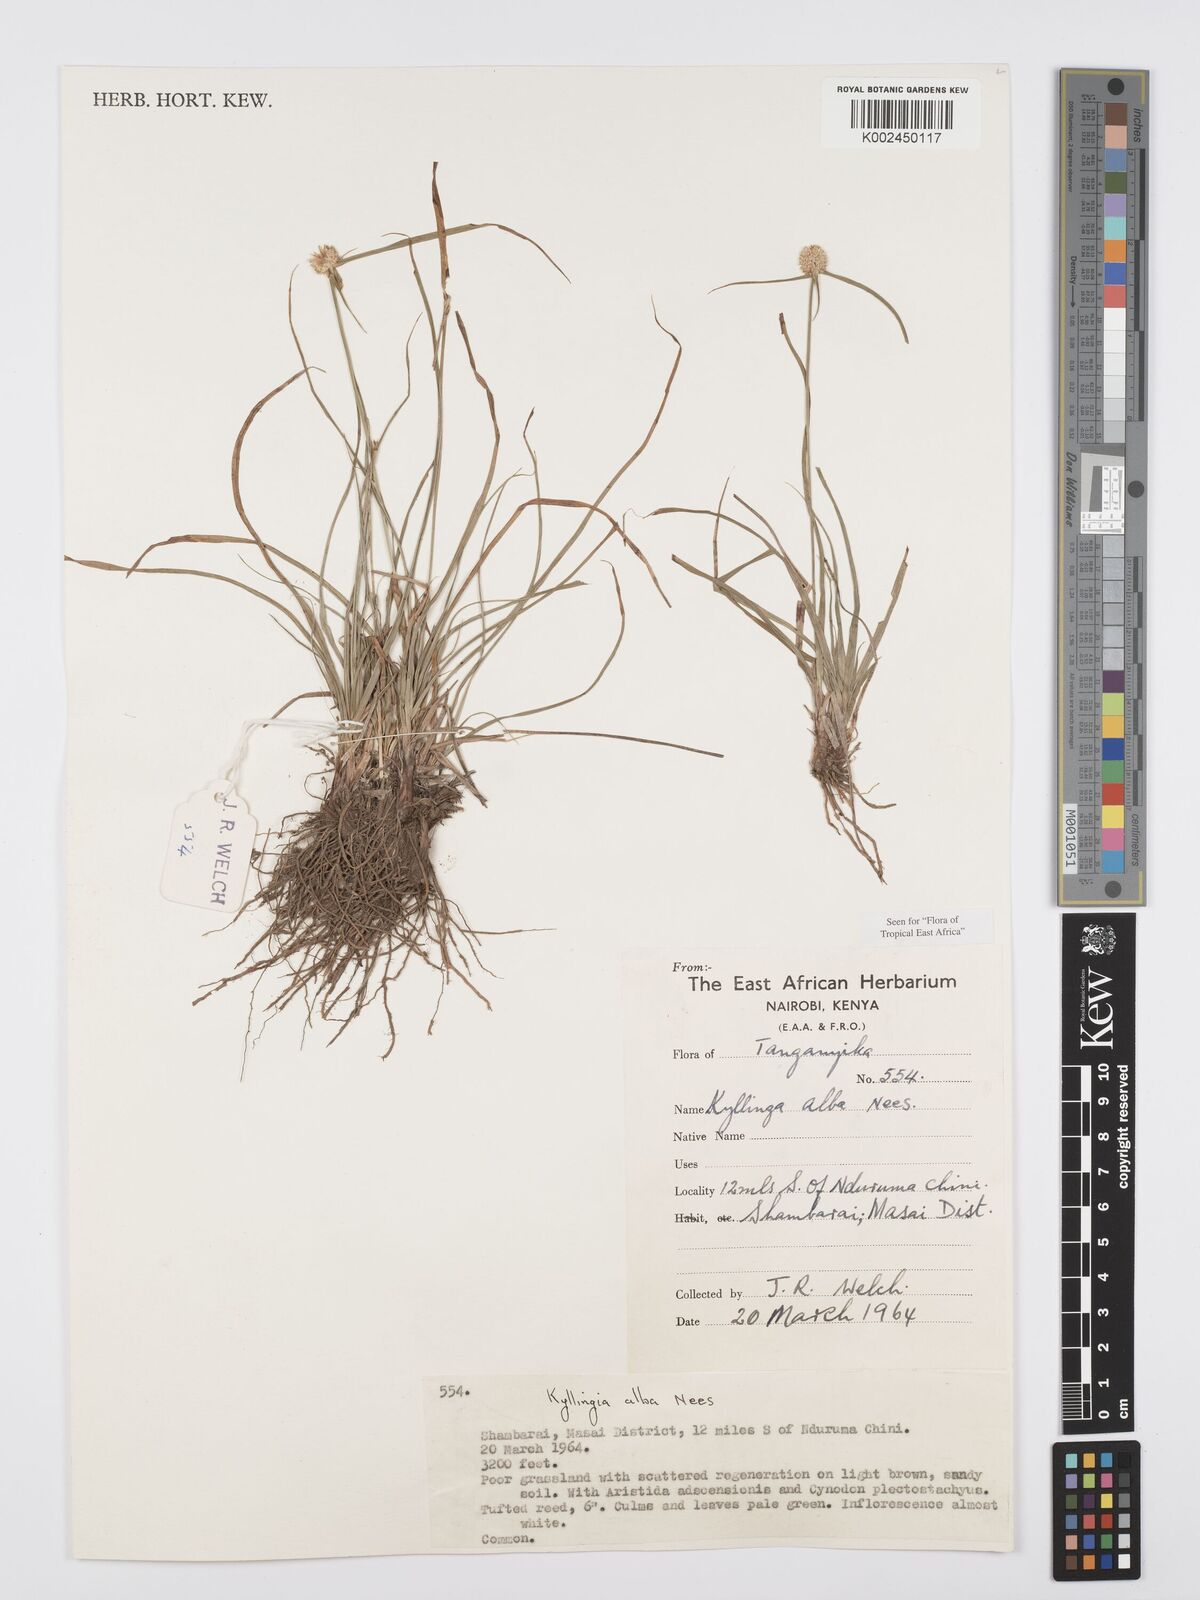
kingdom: Plantae
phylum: Tracheophyta
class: Liliopsida
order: Poales
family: Cyperaceae
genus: Cyperus
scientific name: Cyperus
